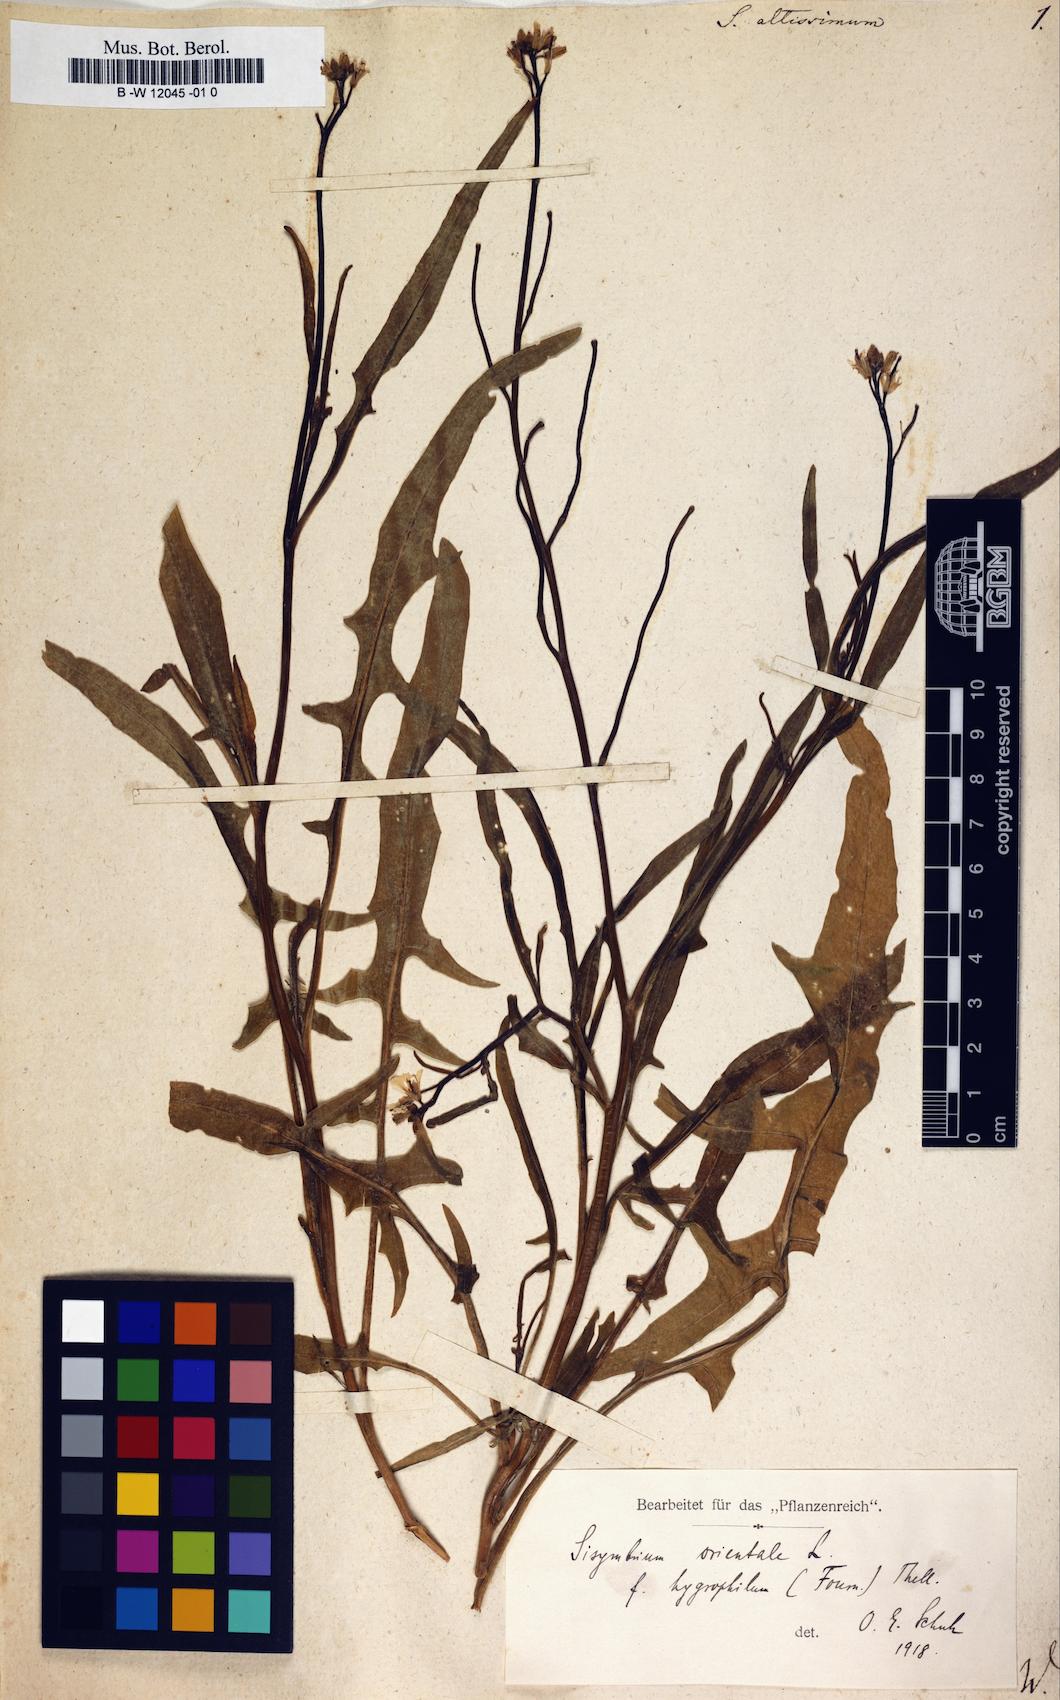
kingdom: Plantae
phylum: Tracheophyta
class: Magnoliopsida
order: Brassicales
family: Brassicaceae
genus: Sisymbrium
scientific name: Sisymbrium altissimum
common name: Tall rocket
